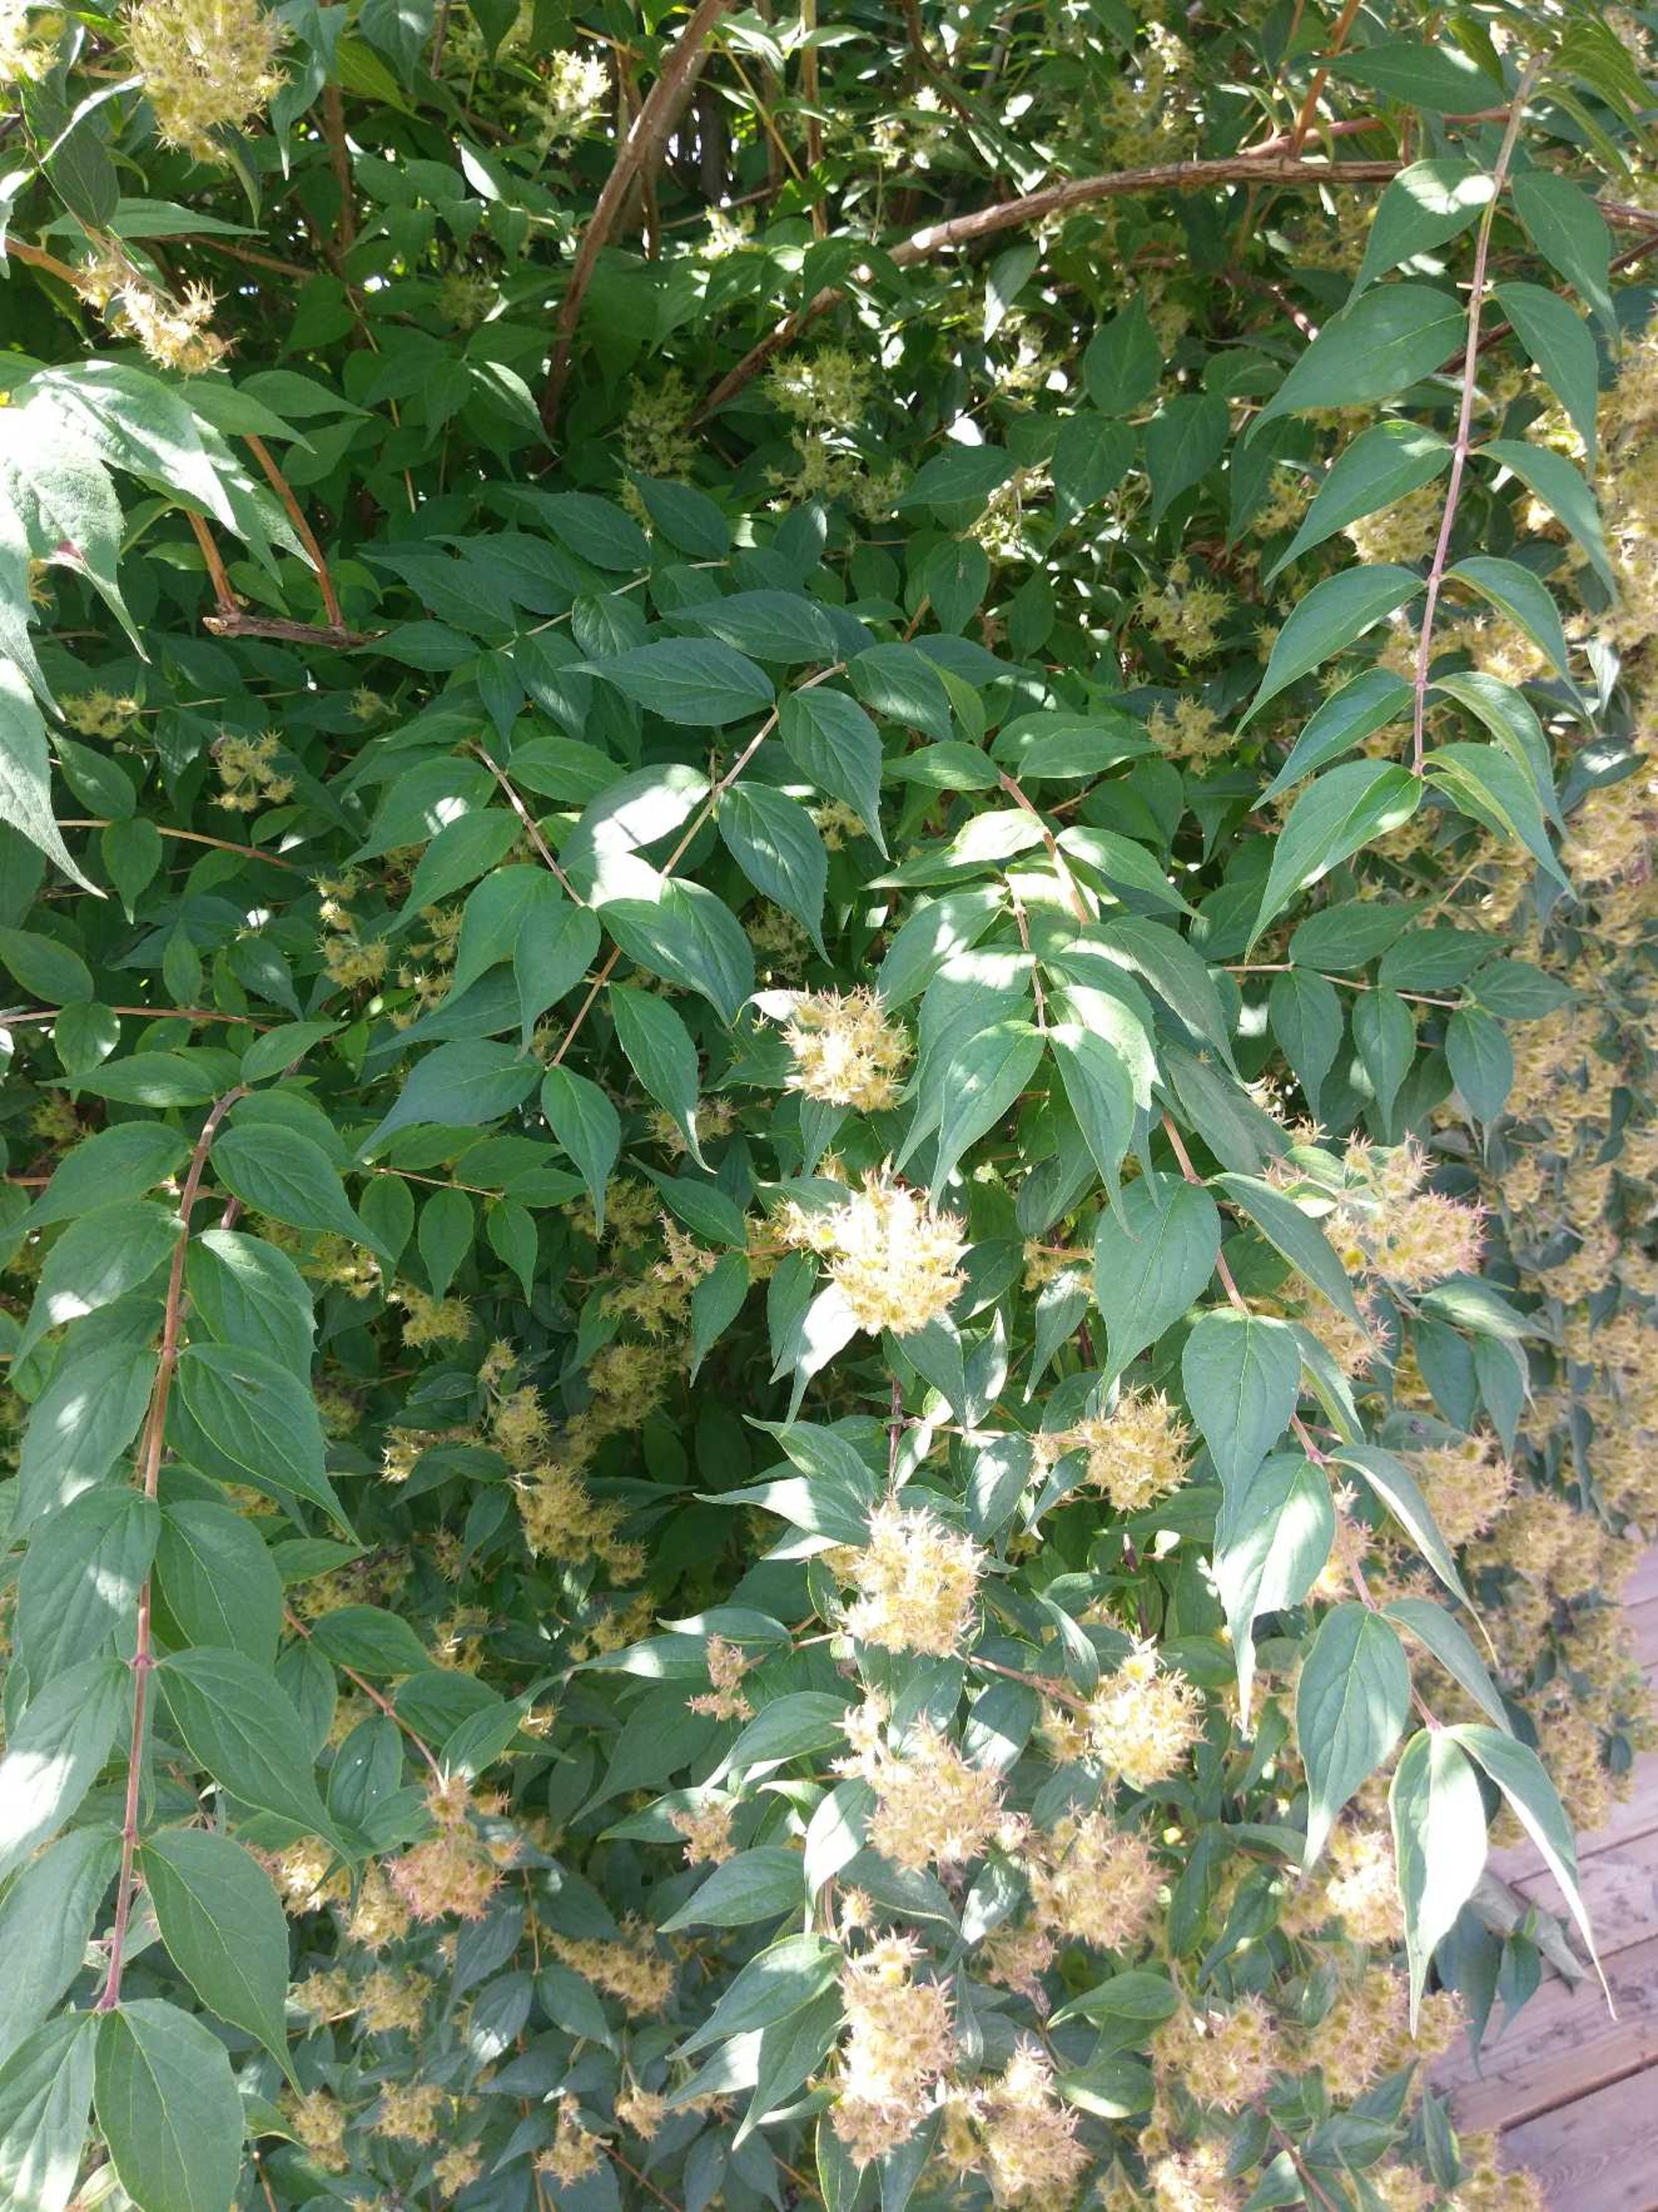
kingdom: Plantae
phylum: Tracheophyta
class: Magnoliopsida
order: Dipsacales
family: Caprifoliaceae
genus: Kolkwitzia
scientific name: Kolkwitzia amabilis
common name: Dronningebusk
